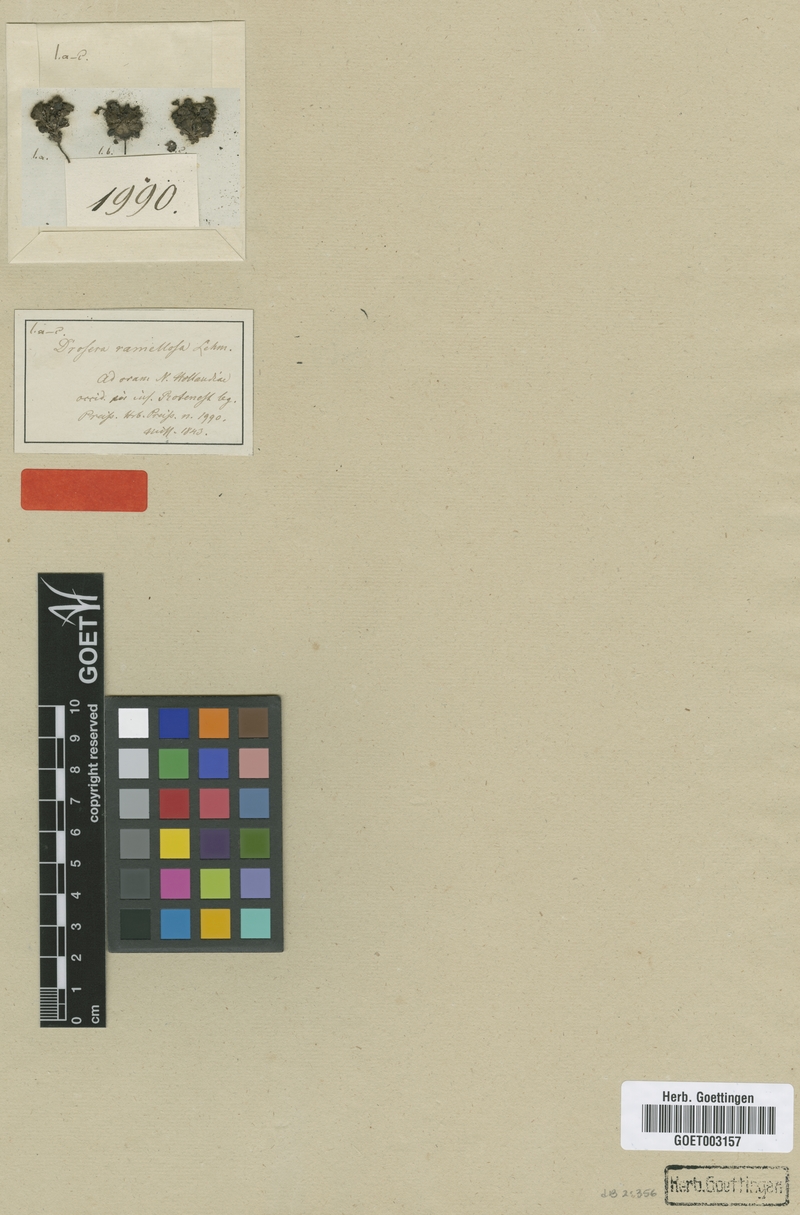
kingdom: Plantae
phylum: Tracheophyta
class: Magnoliopsida
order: Caryophyllales
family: Droseraceae
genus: Drosera
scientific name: Drosera ramellosa
